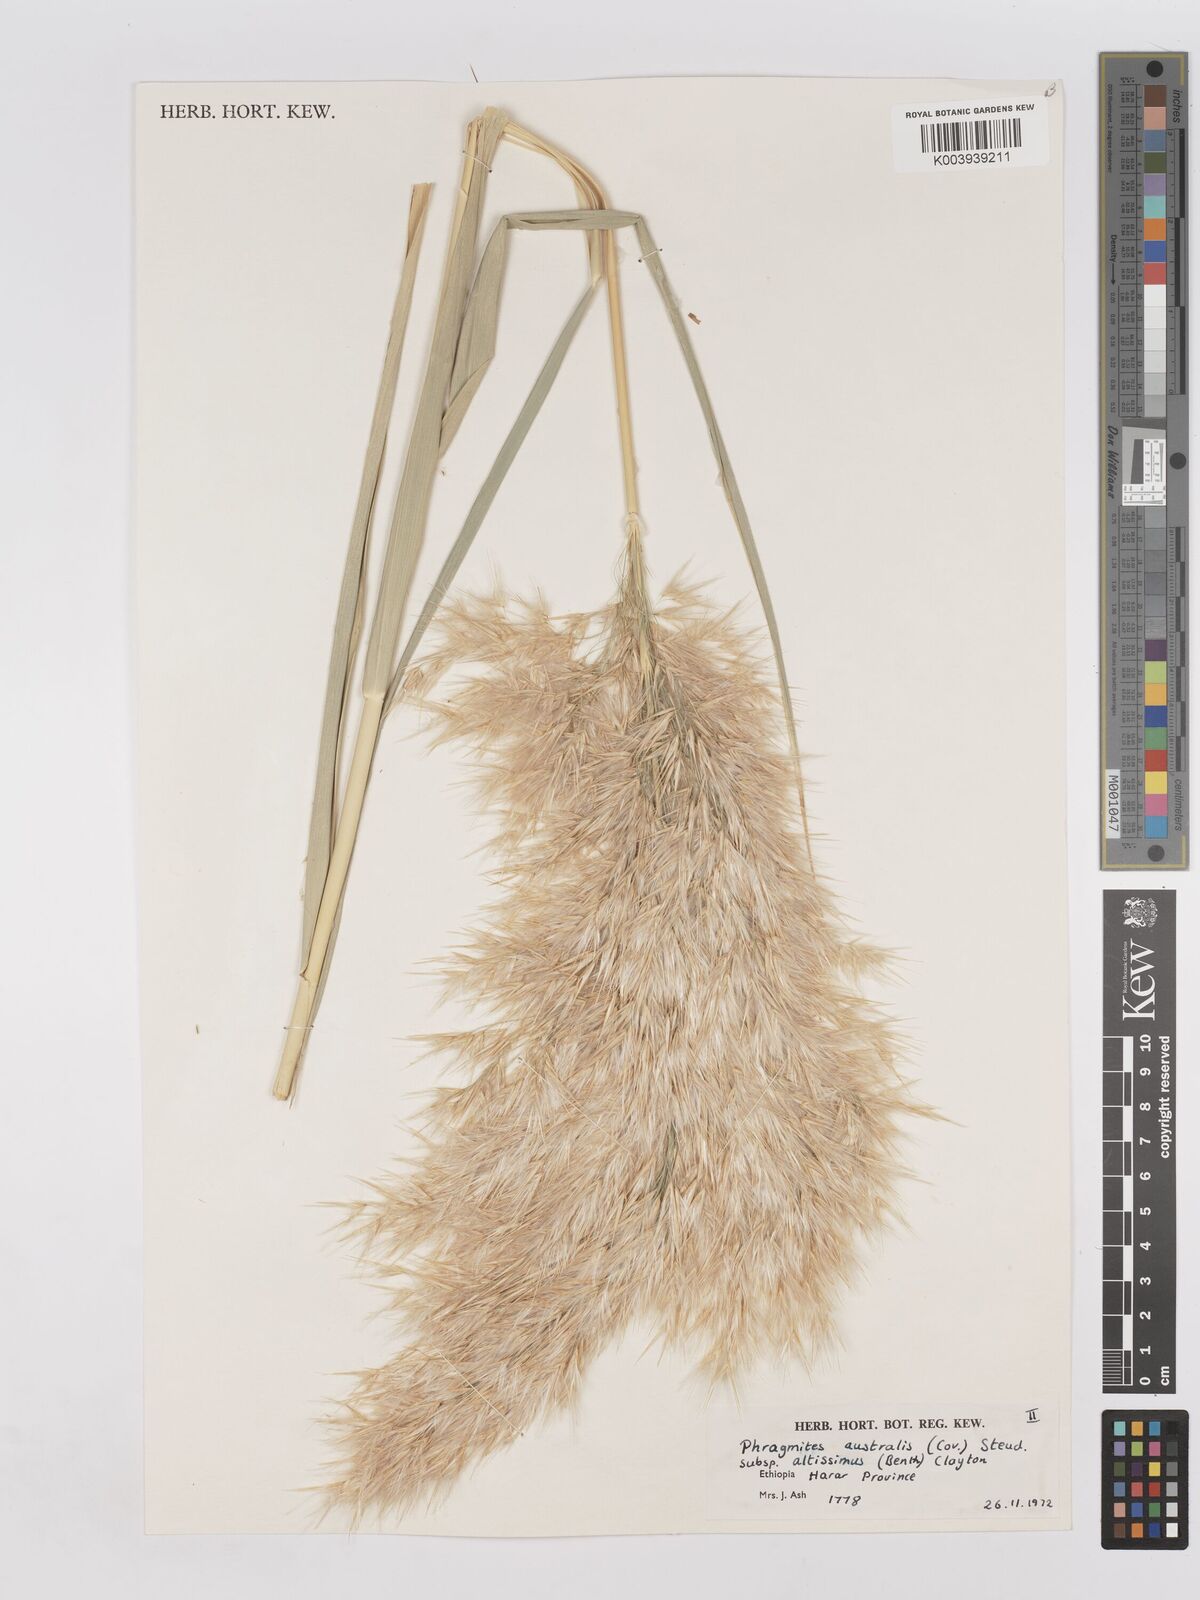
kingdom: Plantae
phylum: Tracheophyta
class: Liliopsida
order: Poales
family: Poaceae
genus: Phragmites
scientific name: Phragmites australis
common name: Common reed
